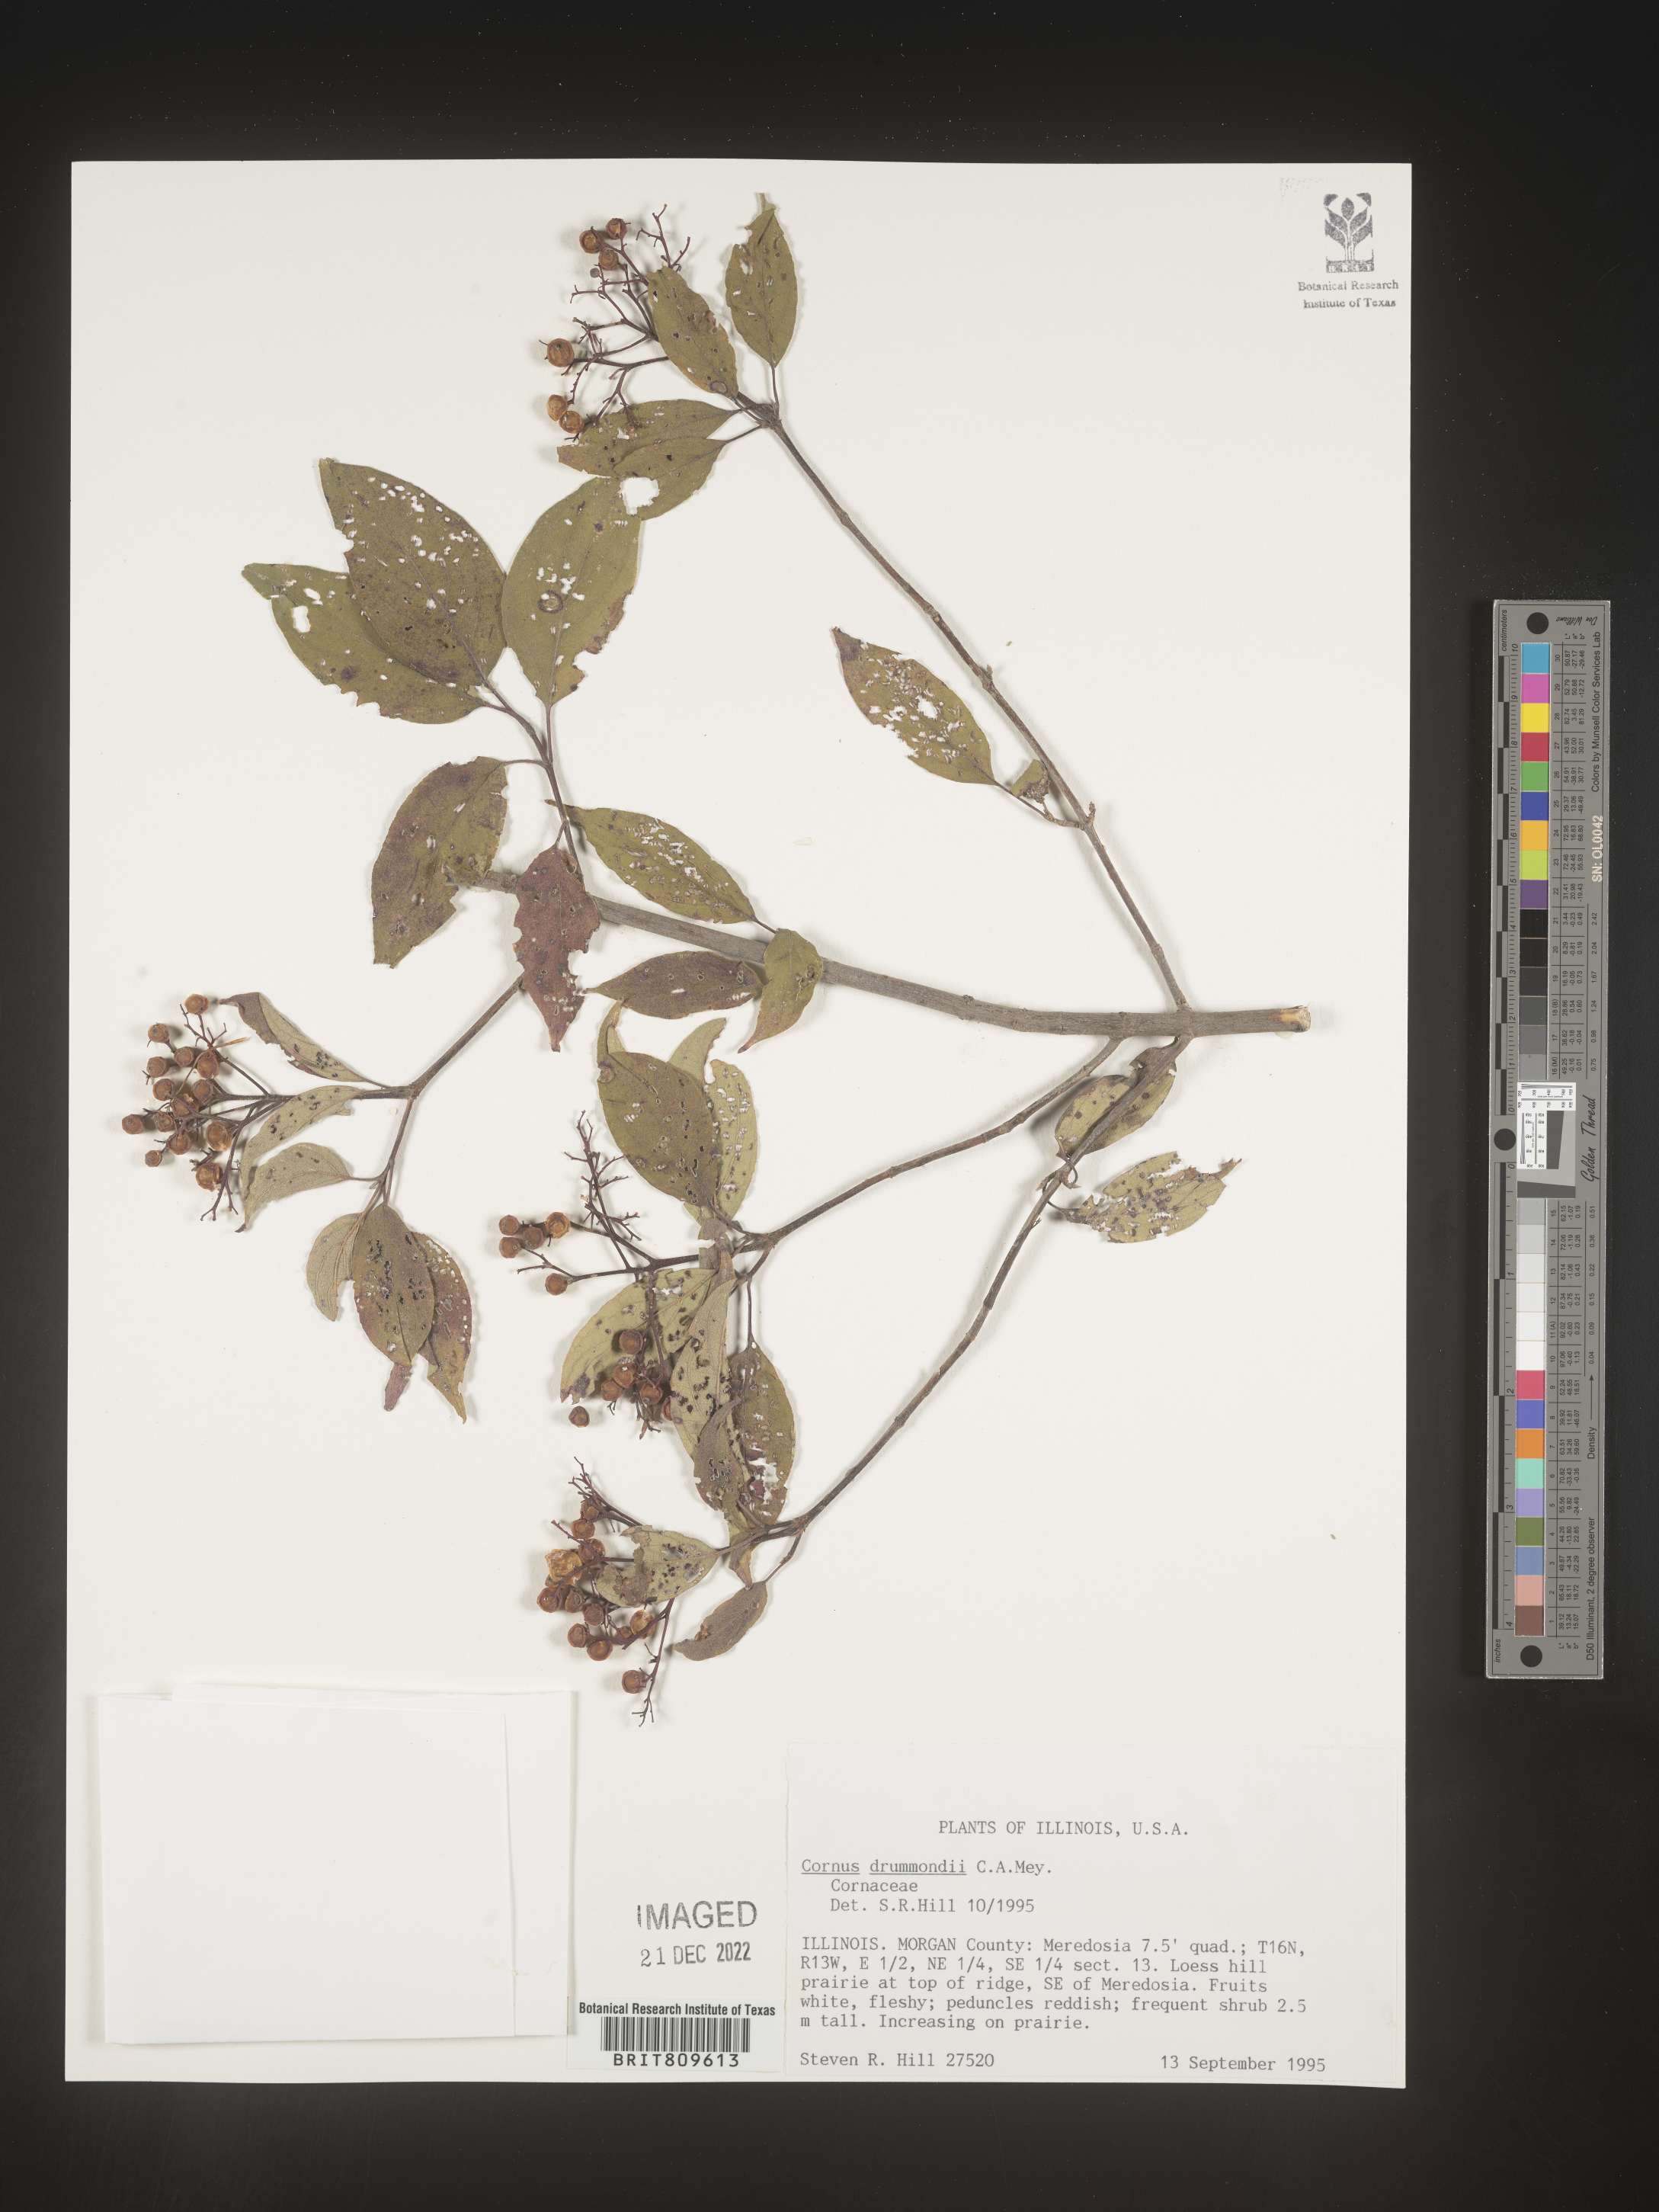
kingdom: Plantae
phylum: Tracheophyta
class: Magnoliopsida
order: Cornales
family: Cornaceae
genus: Cornus
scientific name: Cornus drummondii
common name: Rough-leaf dogwood
